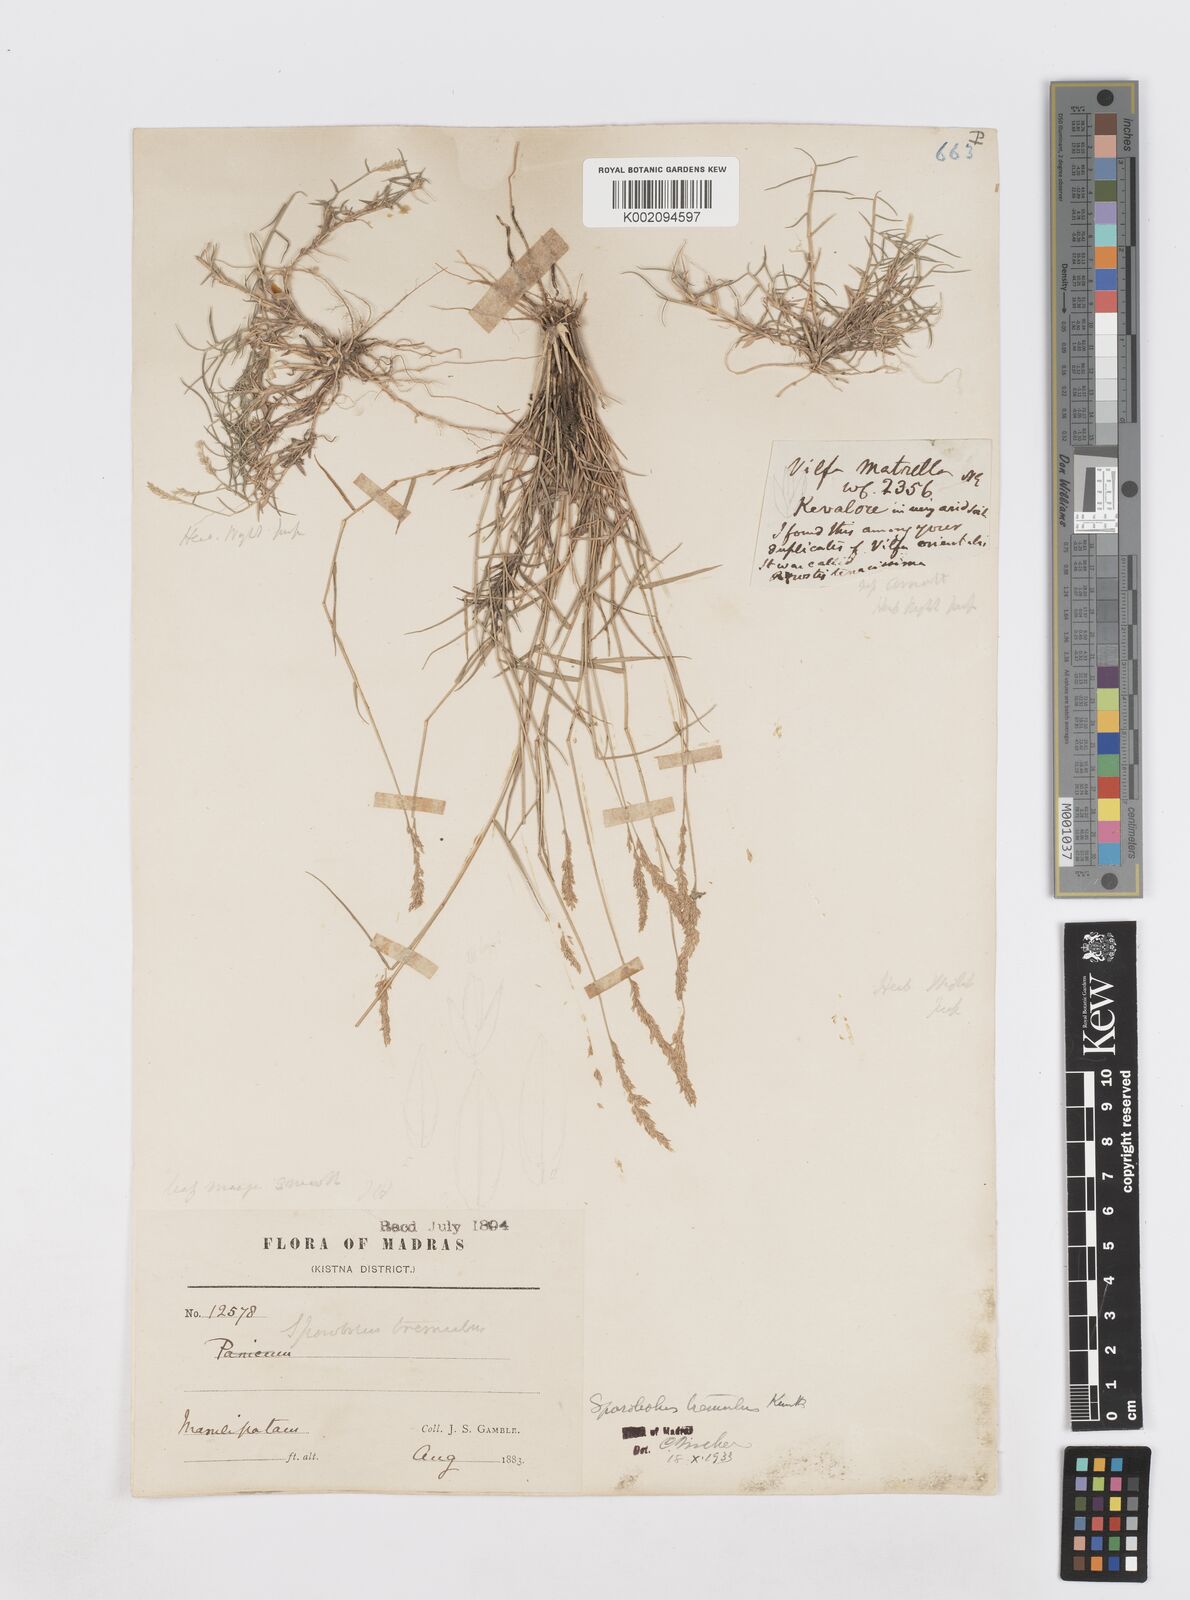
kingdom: Plantae
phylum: Tracheophyta
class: Liliopsida
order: Poales
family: Poaceae
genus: Sporobolus
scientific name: Sporobolus virginicus
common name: Beach dropseed
